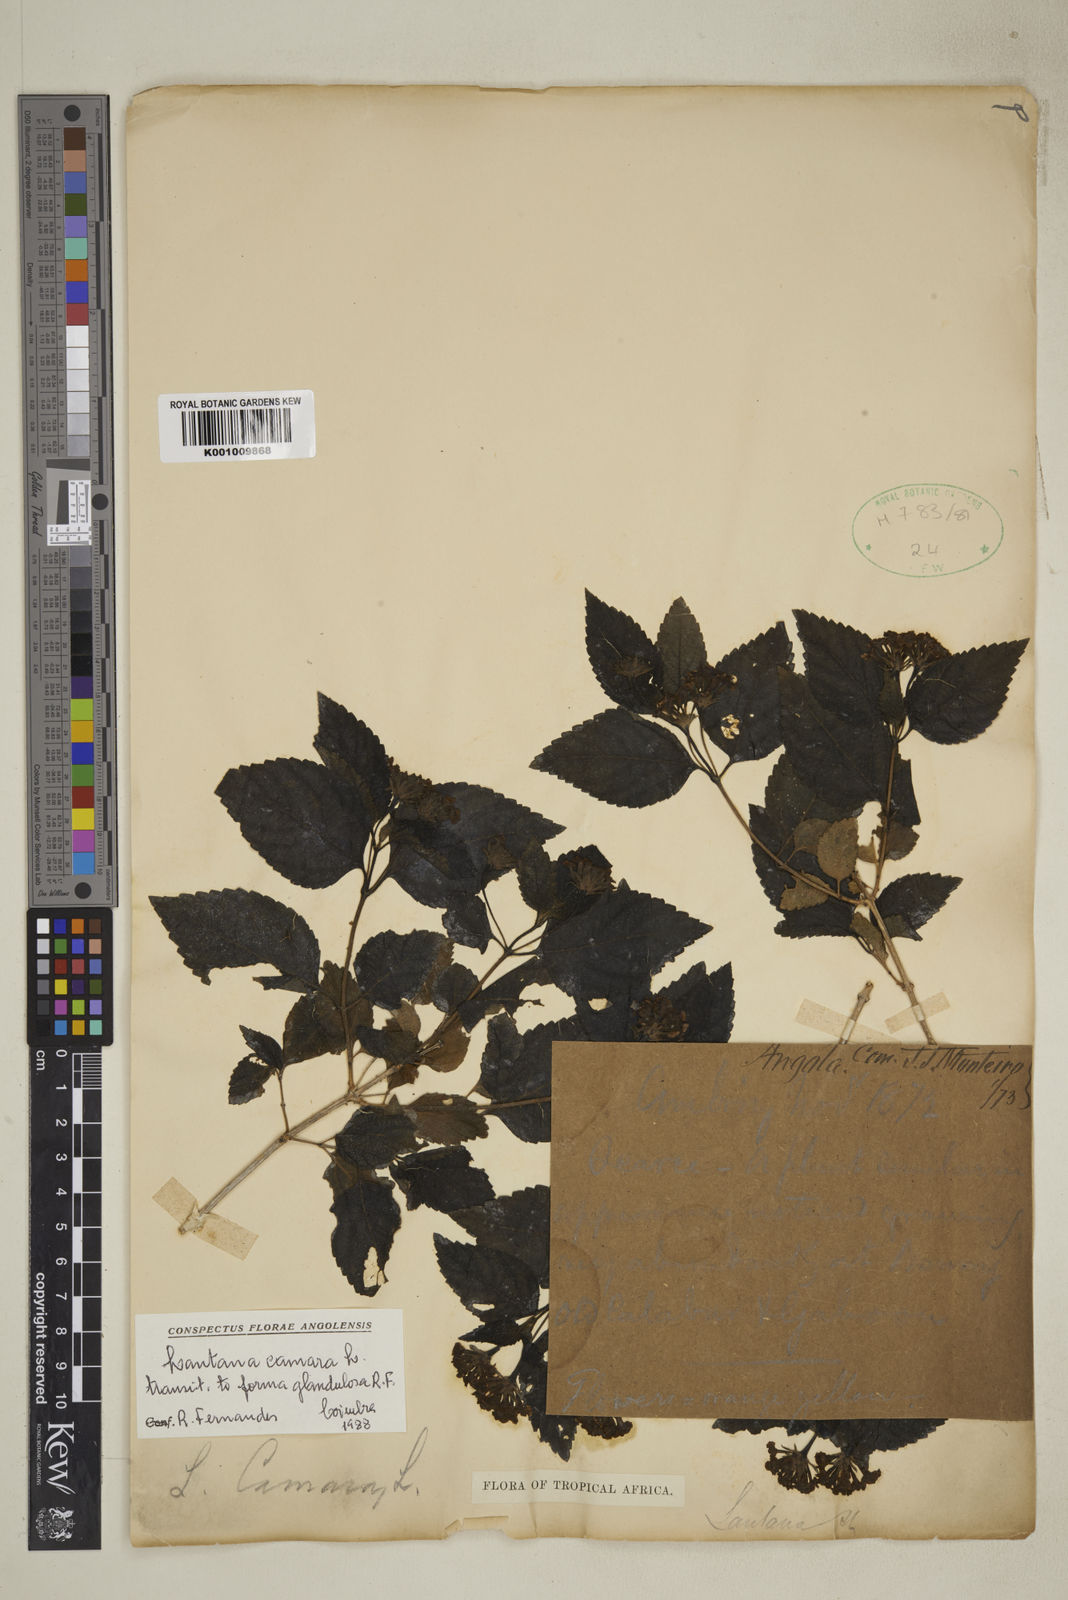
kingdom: Plantae
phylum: Tracheophyta
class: Magnoliopsida
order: Lamiales
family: Verbenaceae
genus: Lantana
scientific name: Lantana camara
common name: Lantana
